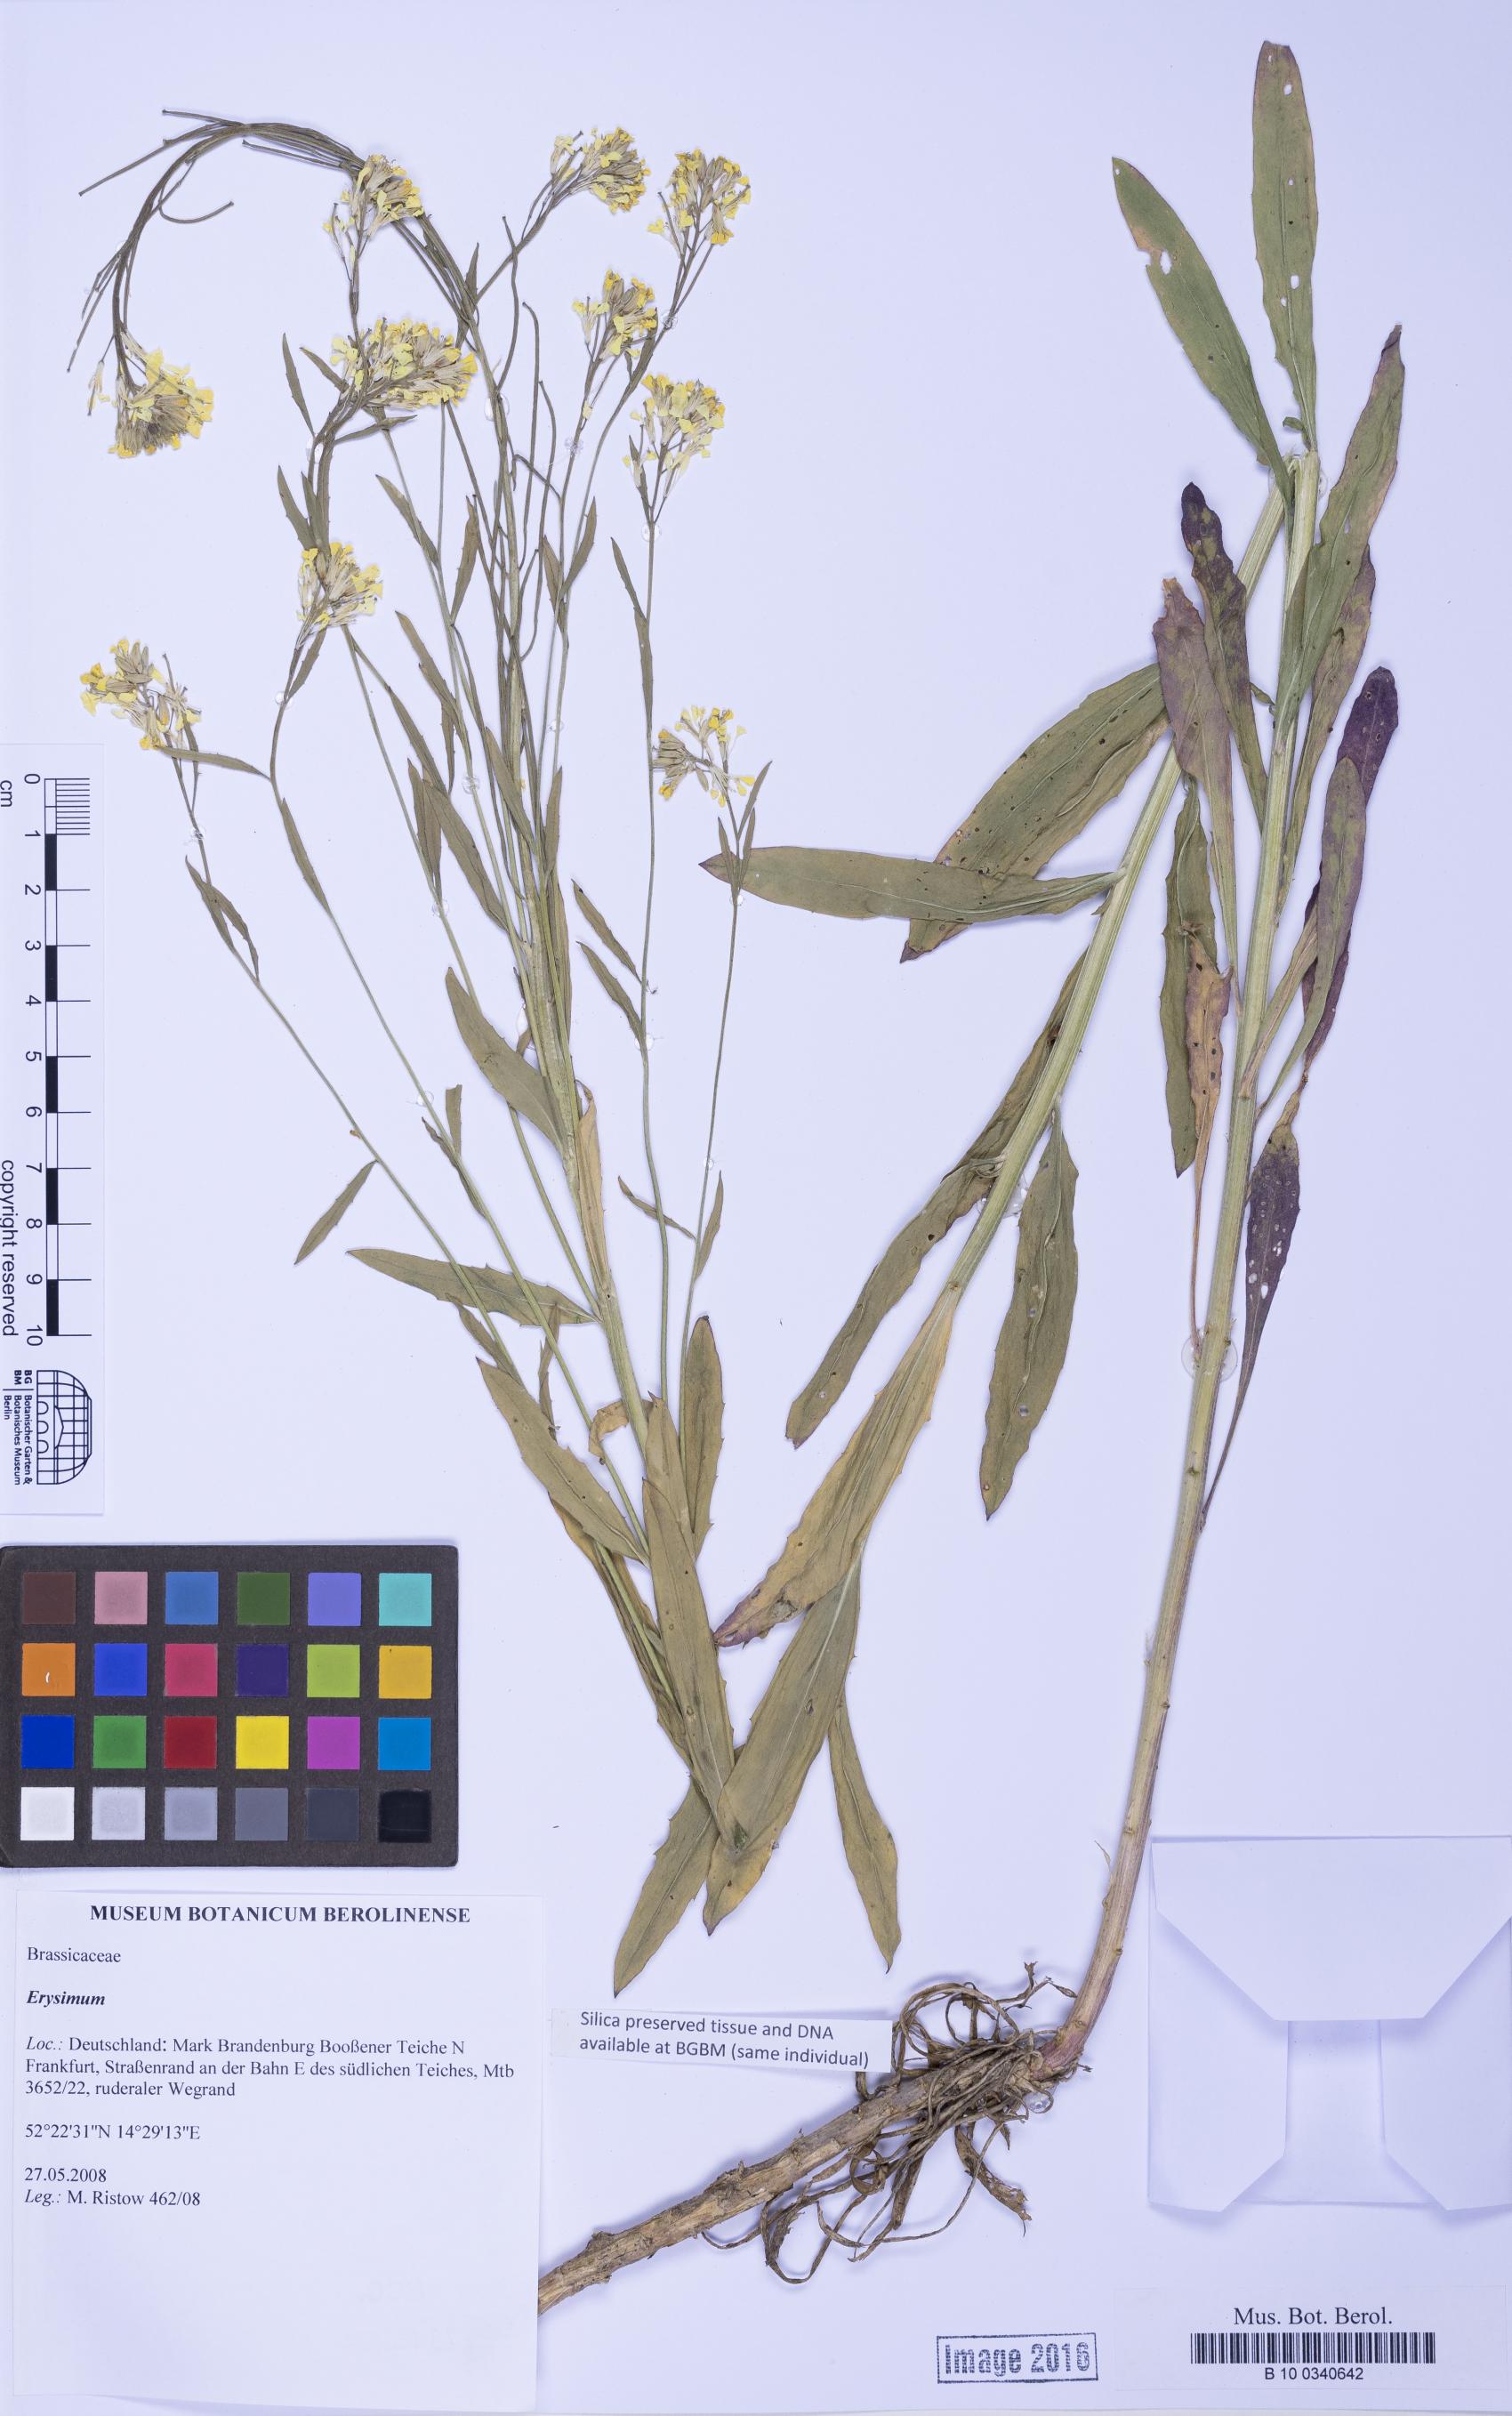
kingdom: Plantae
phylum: Tracheophyta
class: Magnoliopsida
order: Brassicales
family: Brassicaceae
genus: Erysimum
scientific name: Erysimum
